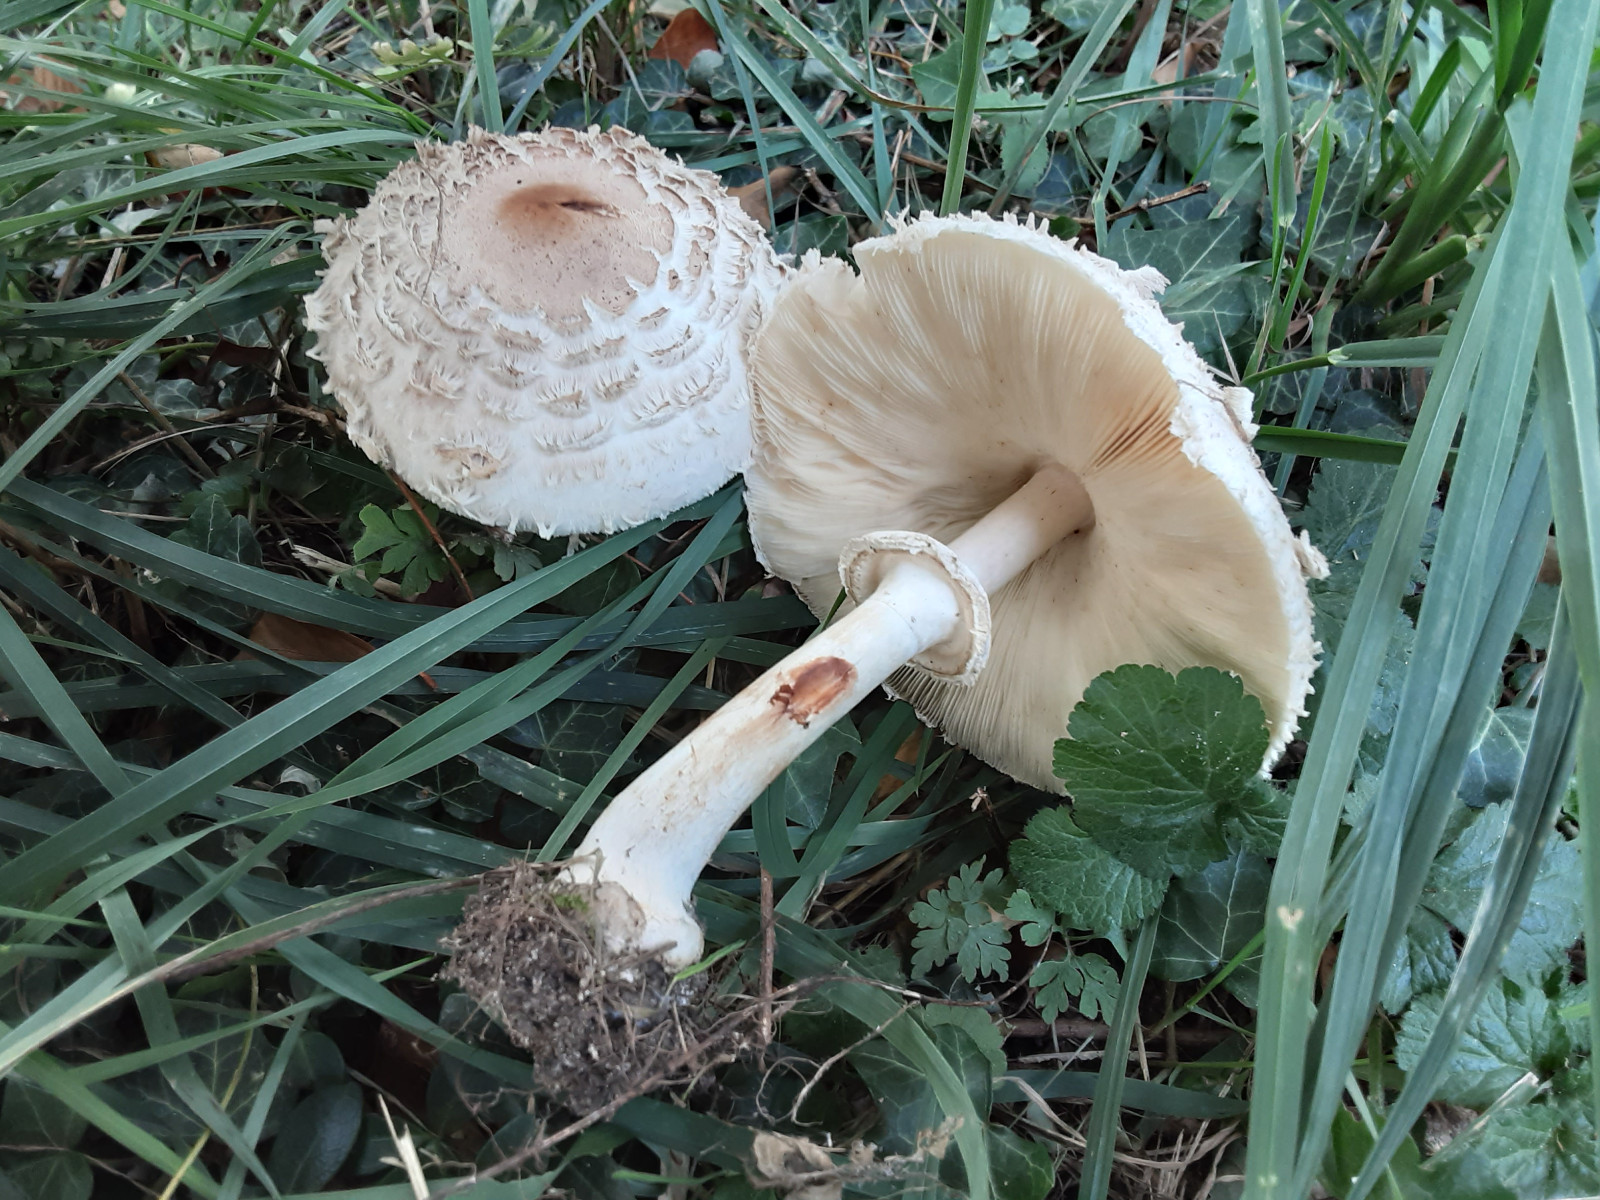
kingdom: Fungi
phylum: Basidiomycota
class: Agaricomycetes
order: Agaricales
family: Agaricaceae
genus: Chlorophyllum
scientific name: Chlorophyllum brunneum
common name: giftig rabarberhat
